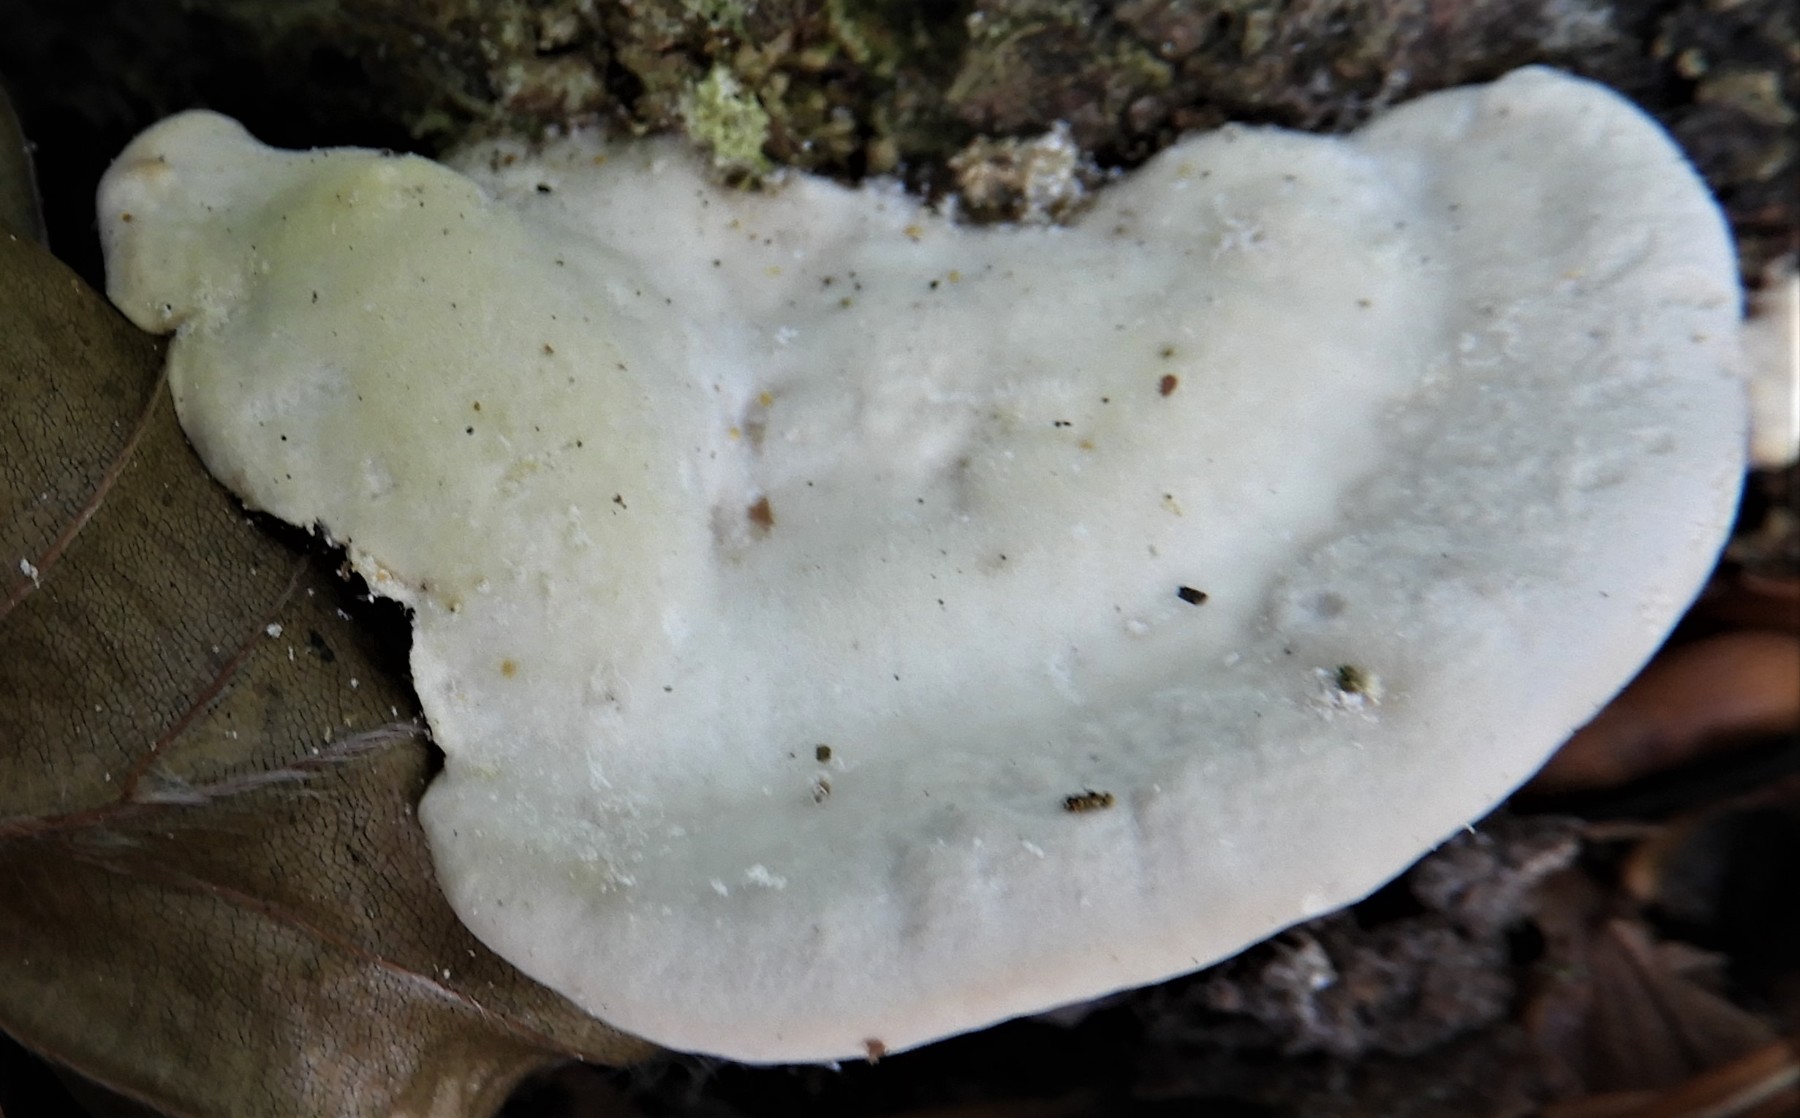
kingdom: Fungi
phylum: Basidiomycota
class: Agaricomycetes
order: Polyporales
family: Polyporaceae
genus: Trametes
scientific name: Trametes gibbosa
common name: puklet læderporesvamp
